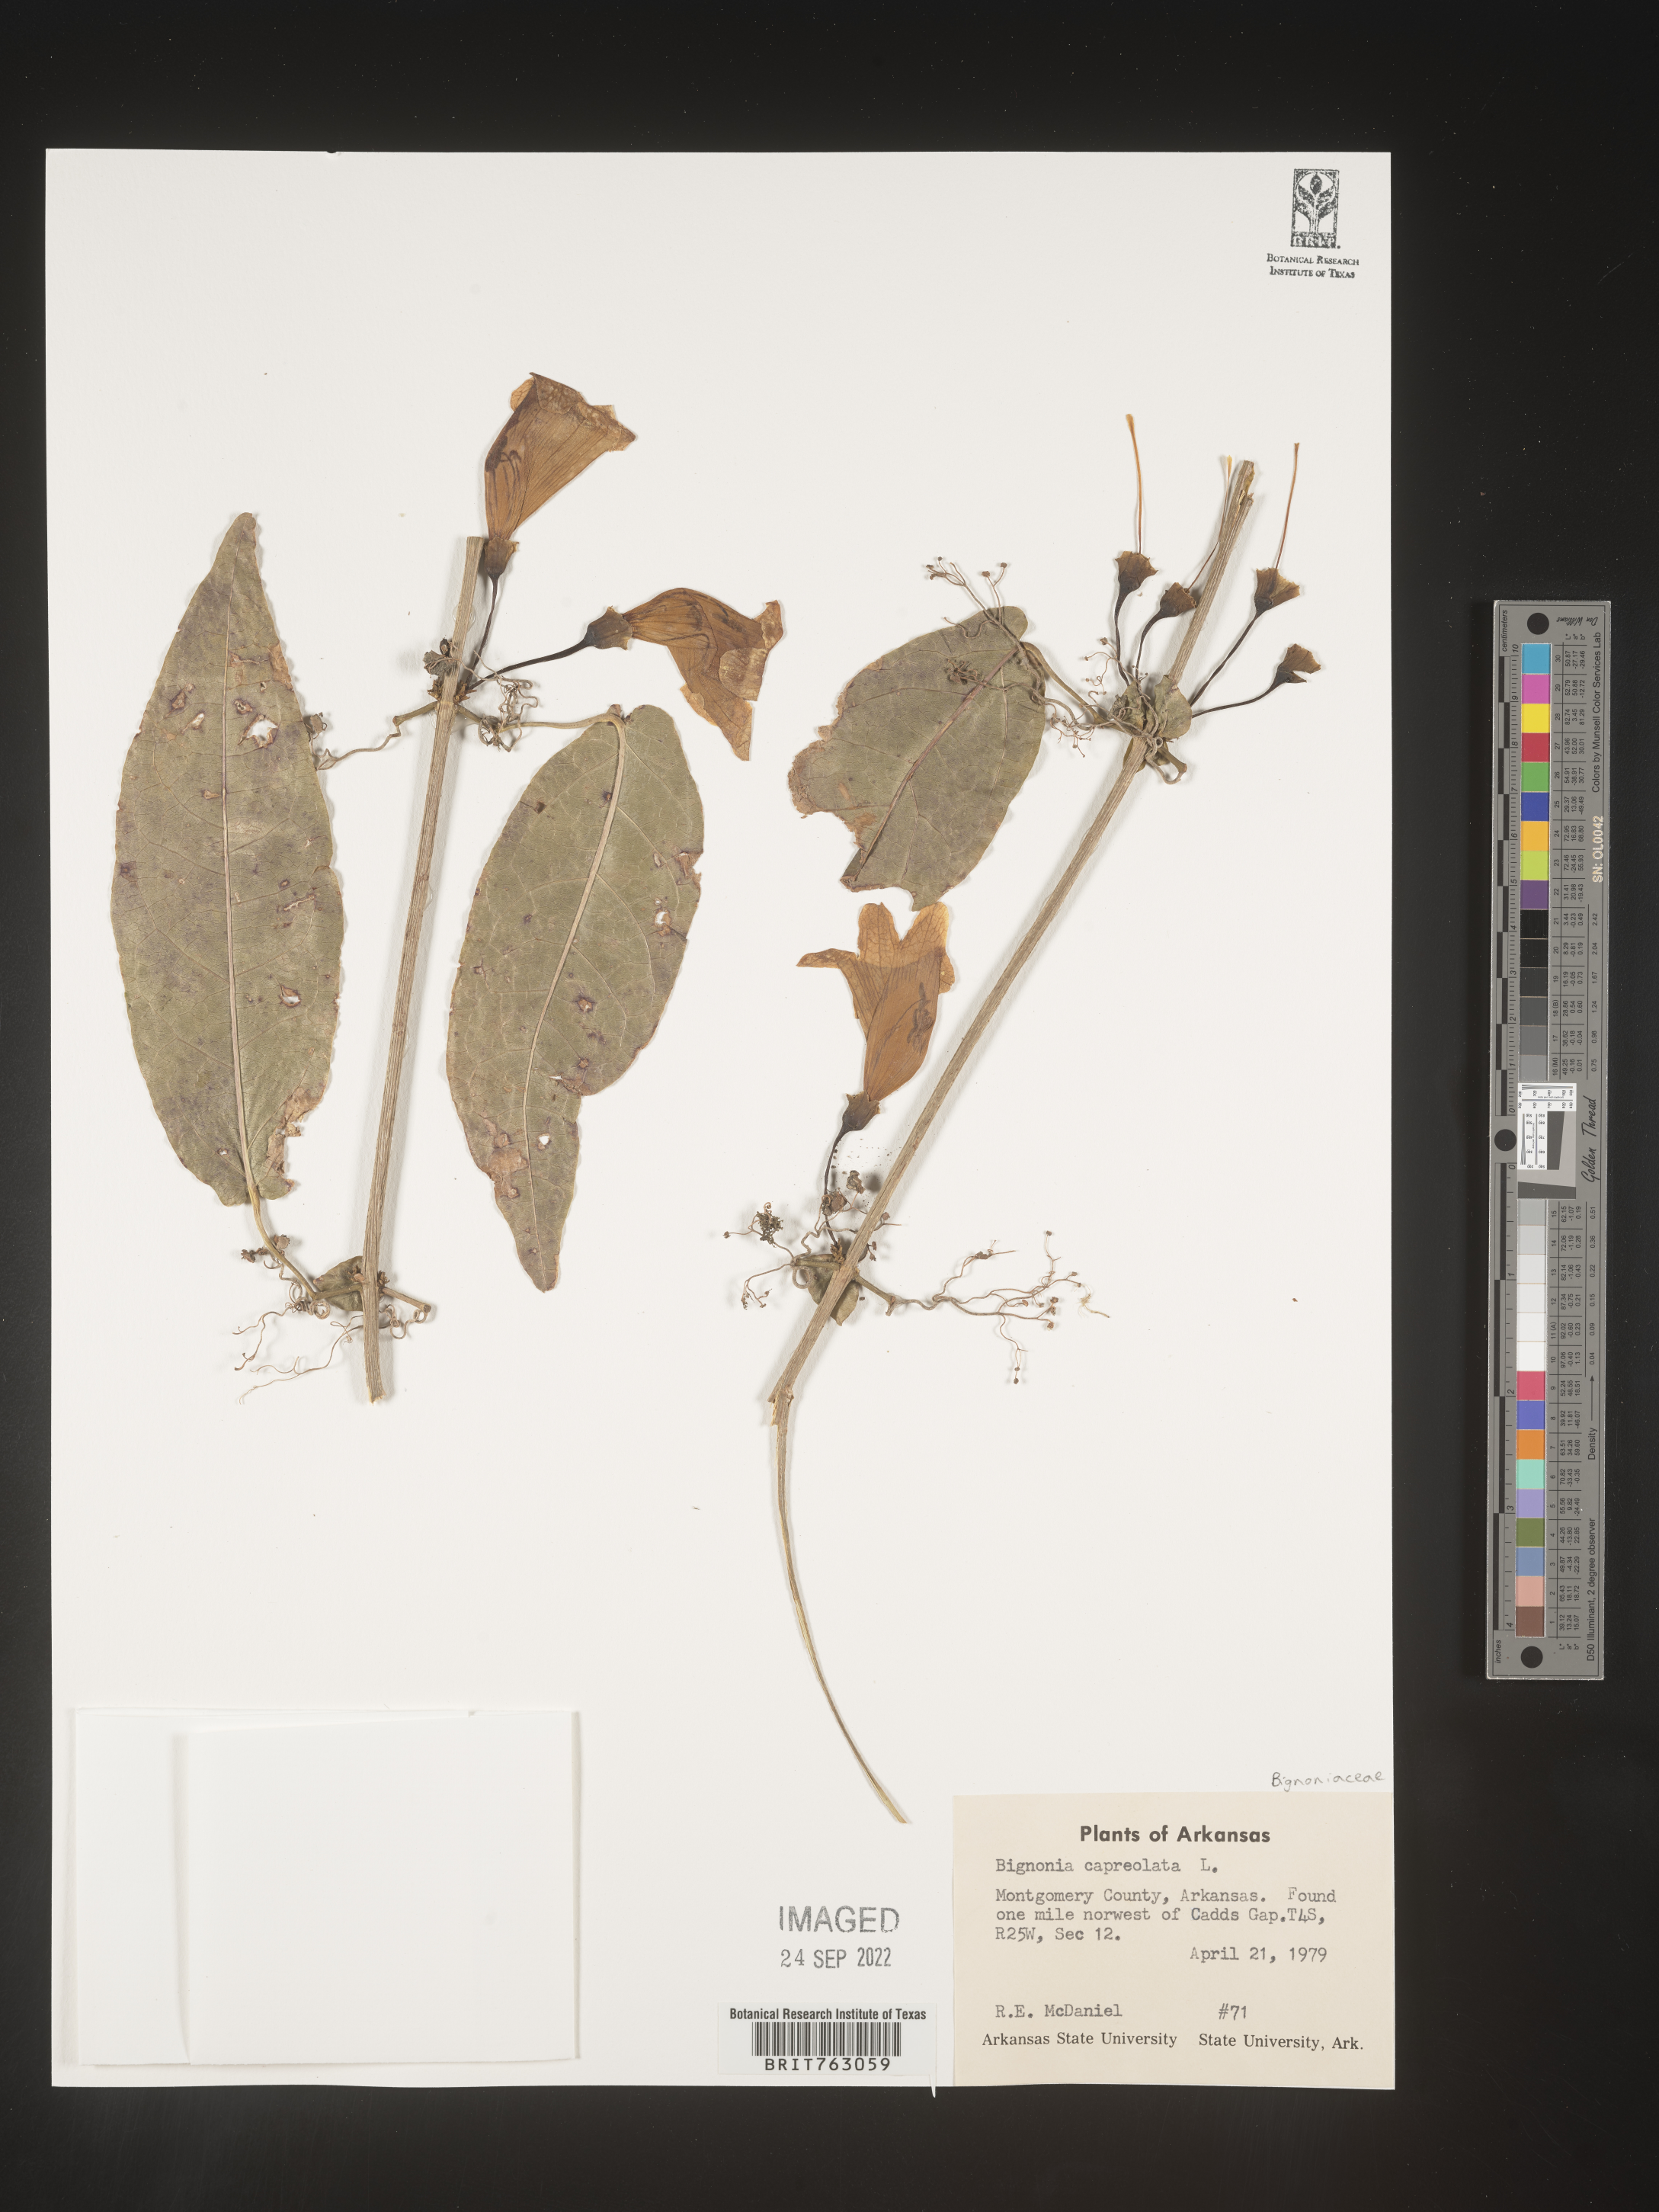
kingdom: Plantae
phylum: Tracheophyta
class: Magnoliopsida
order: Lamiales
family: Bignoniaceae
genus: Bignonia
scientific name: Bignonia capreolata
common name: Crossvine
